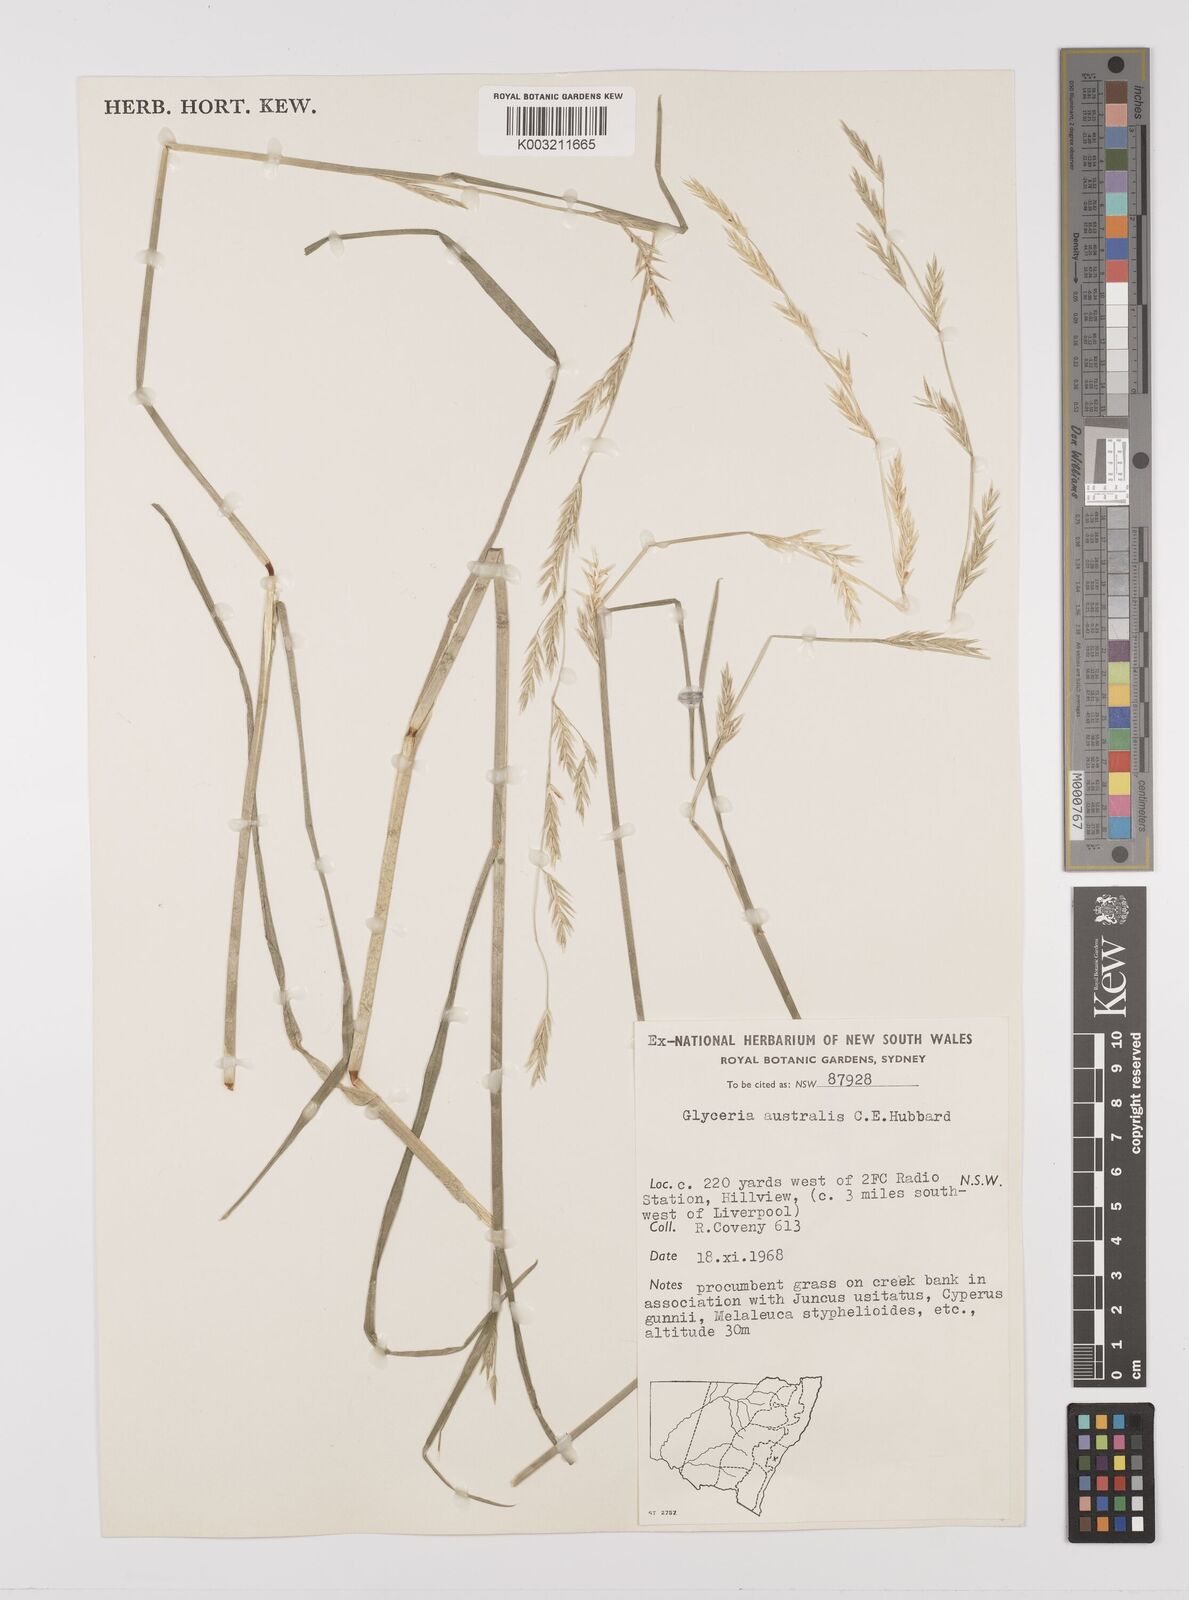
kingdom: Plantae
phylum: Tracheophyta
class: Liliopsida
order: Poales
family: Poaceae
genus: Glyceria
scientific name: Glyceria australis
